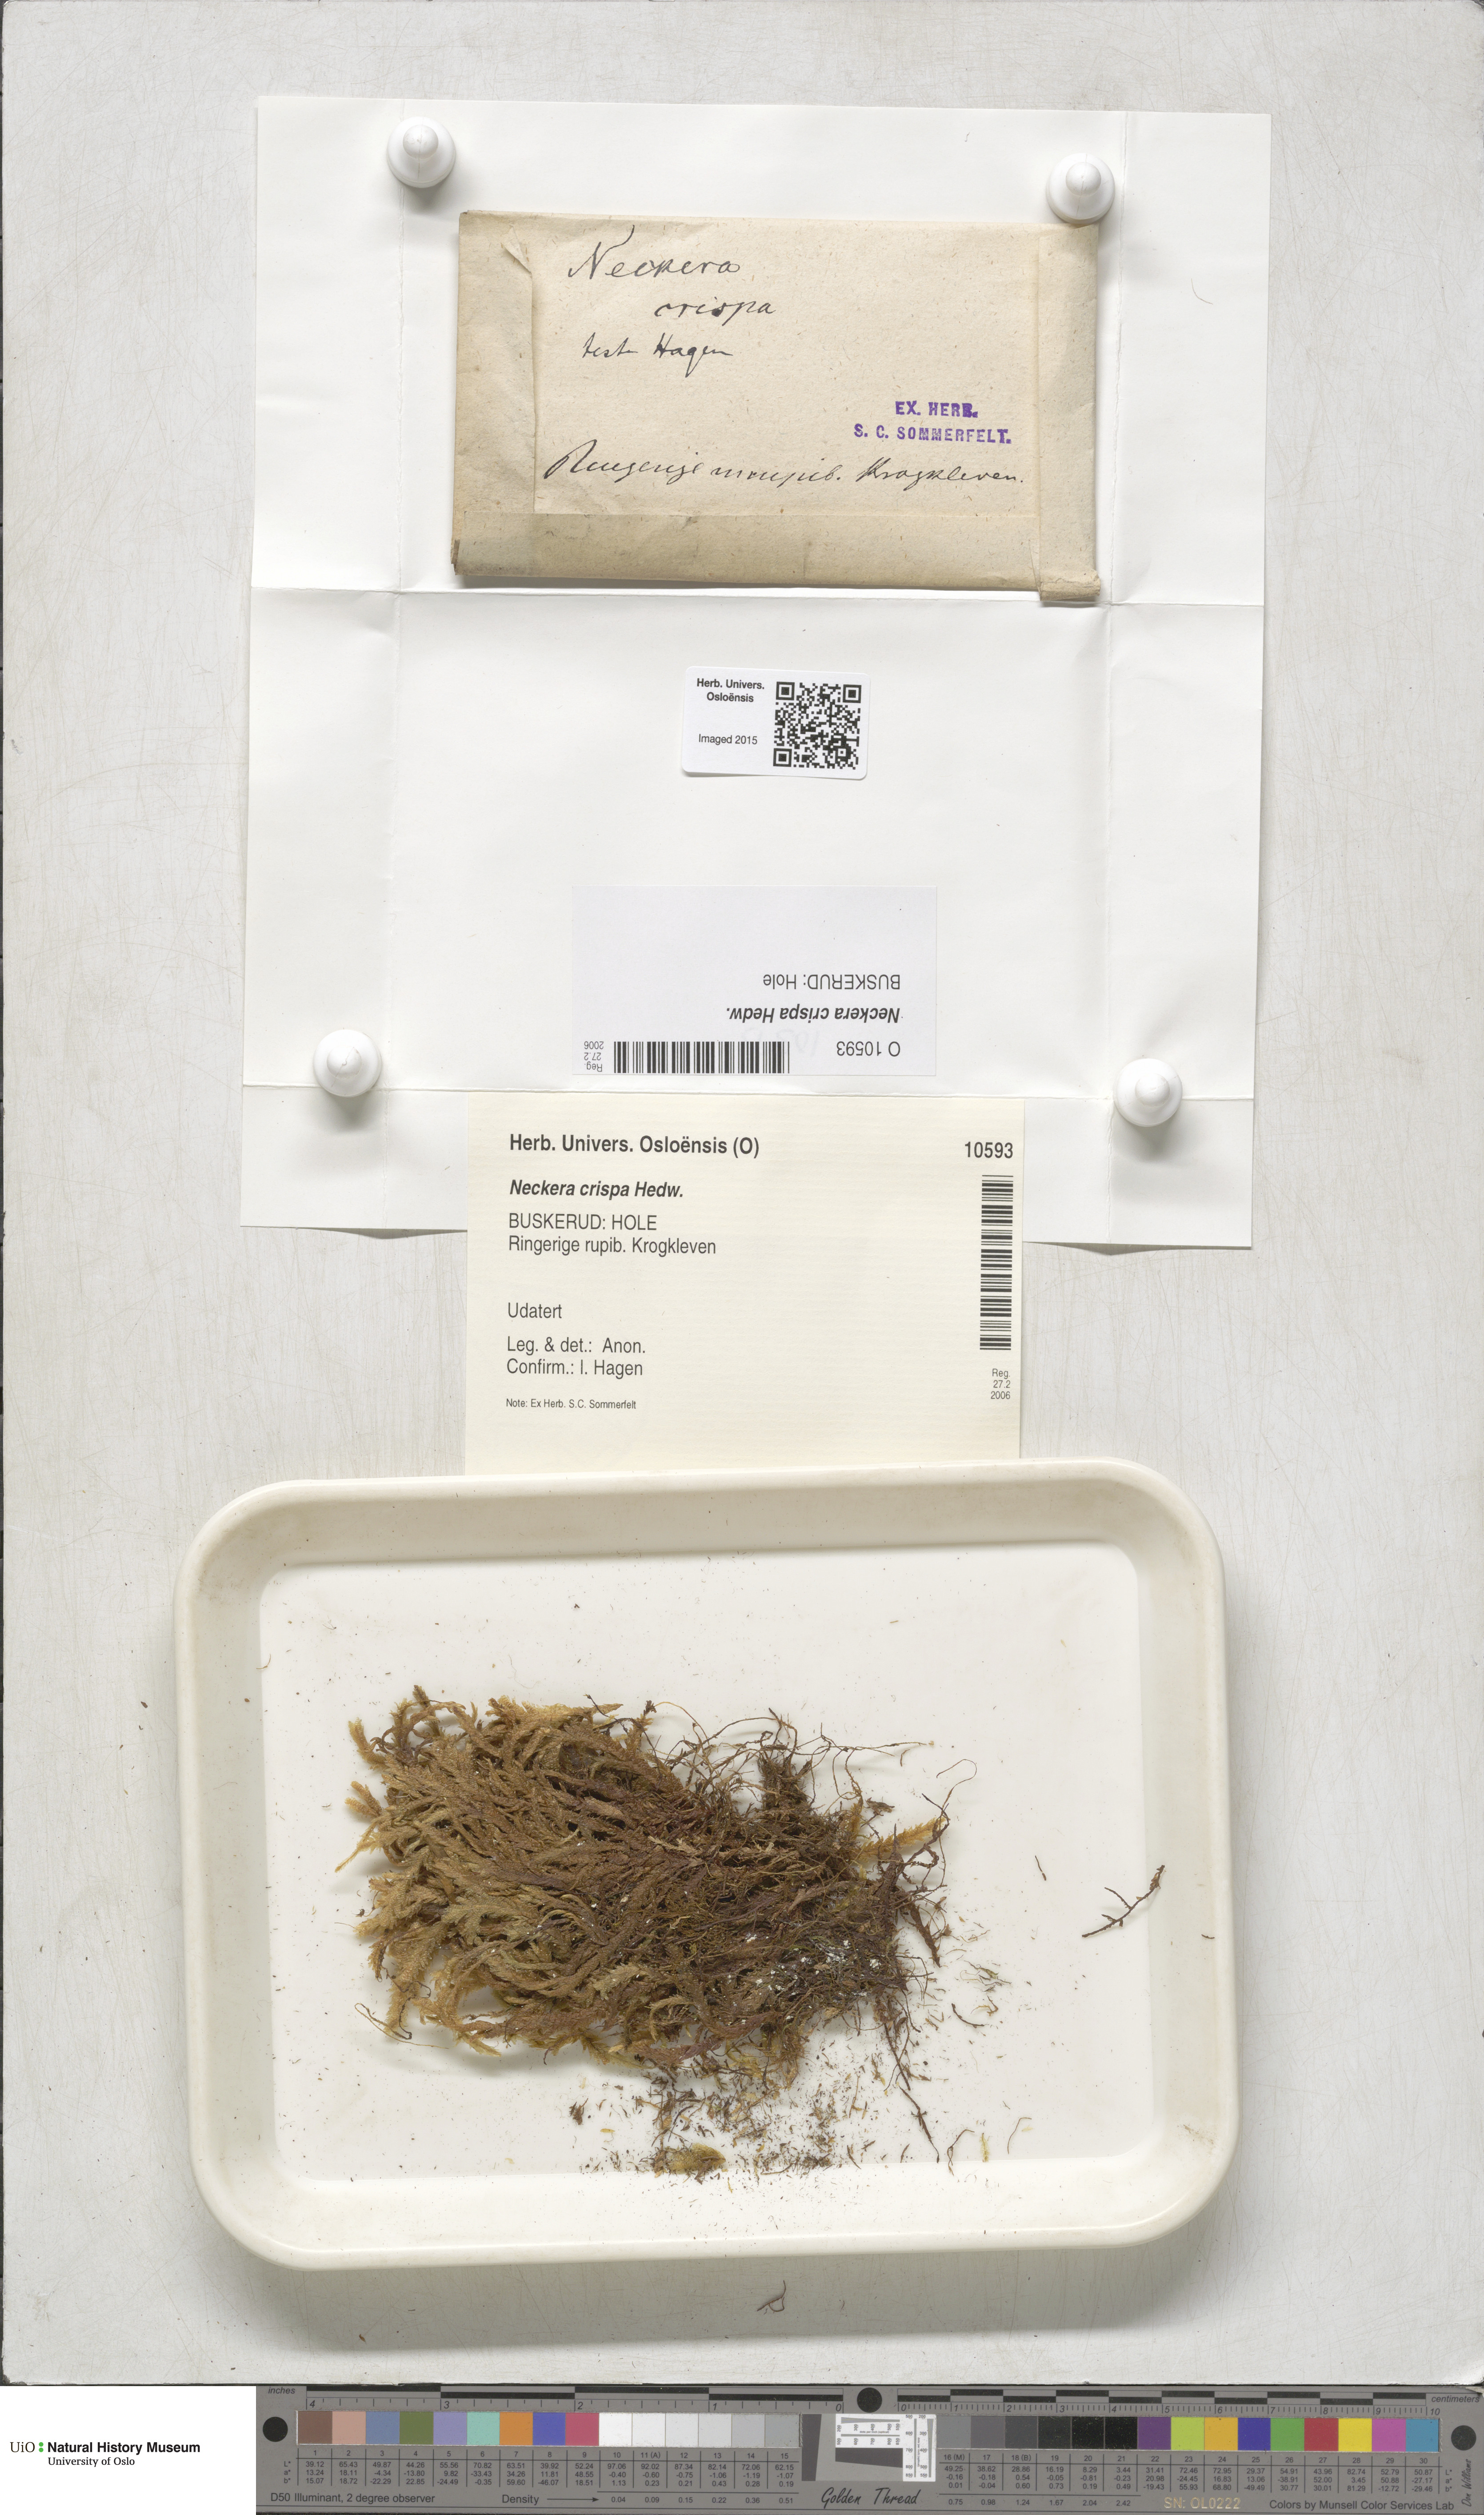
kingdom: Plantae
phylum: Bryophyta
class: Bryopsida
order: Hypnales
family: Neckeraceae
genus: Exsertotheca
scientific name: Exsertotheca crispa
